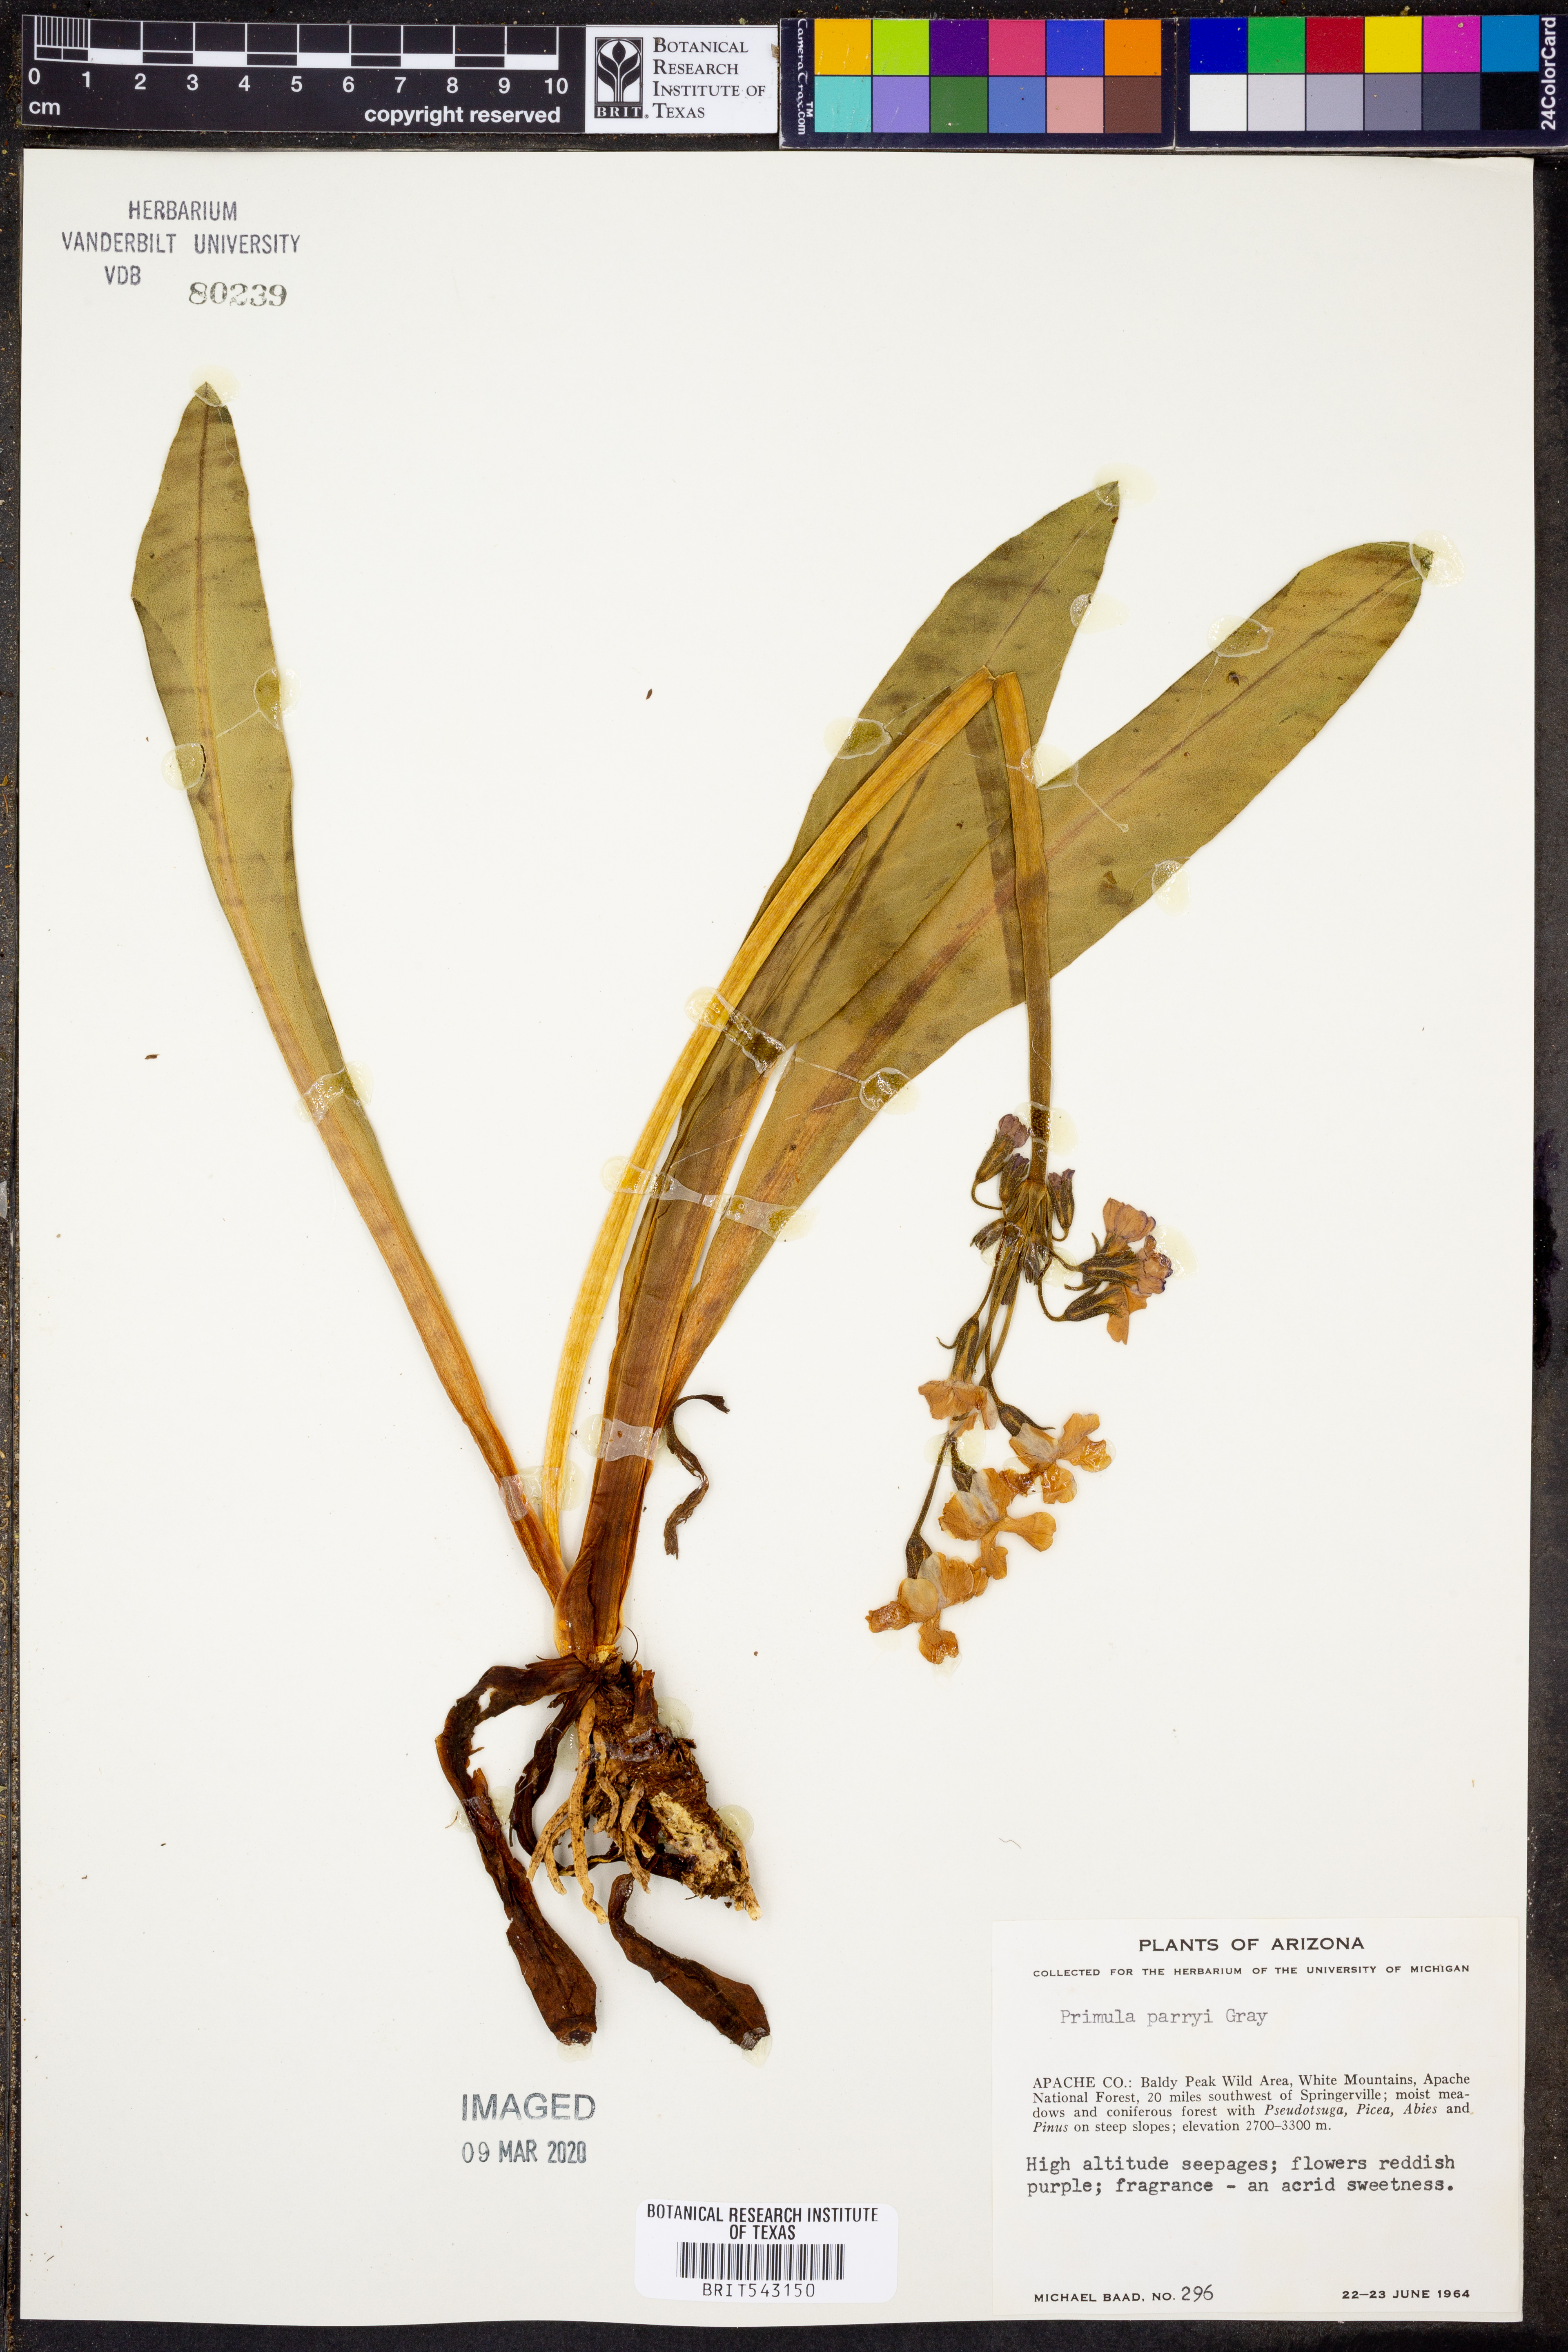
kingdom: Plantae
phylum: Tracheophyta
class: Magnoliopsida
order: Ericales
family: Primulaceae
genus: Primula
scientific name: Primula parryi
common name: Parry's primrose
